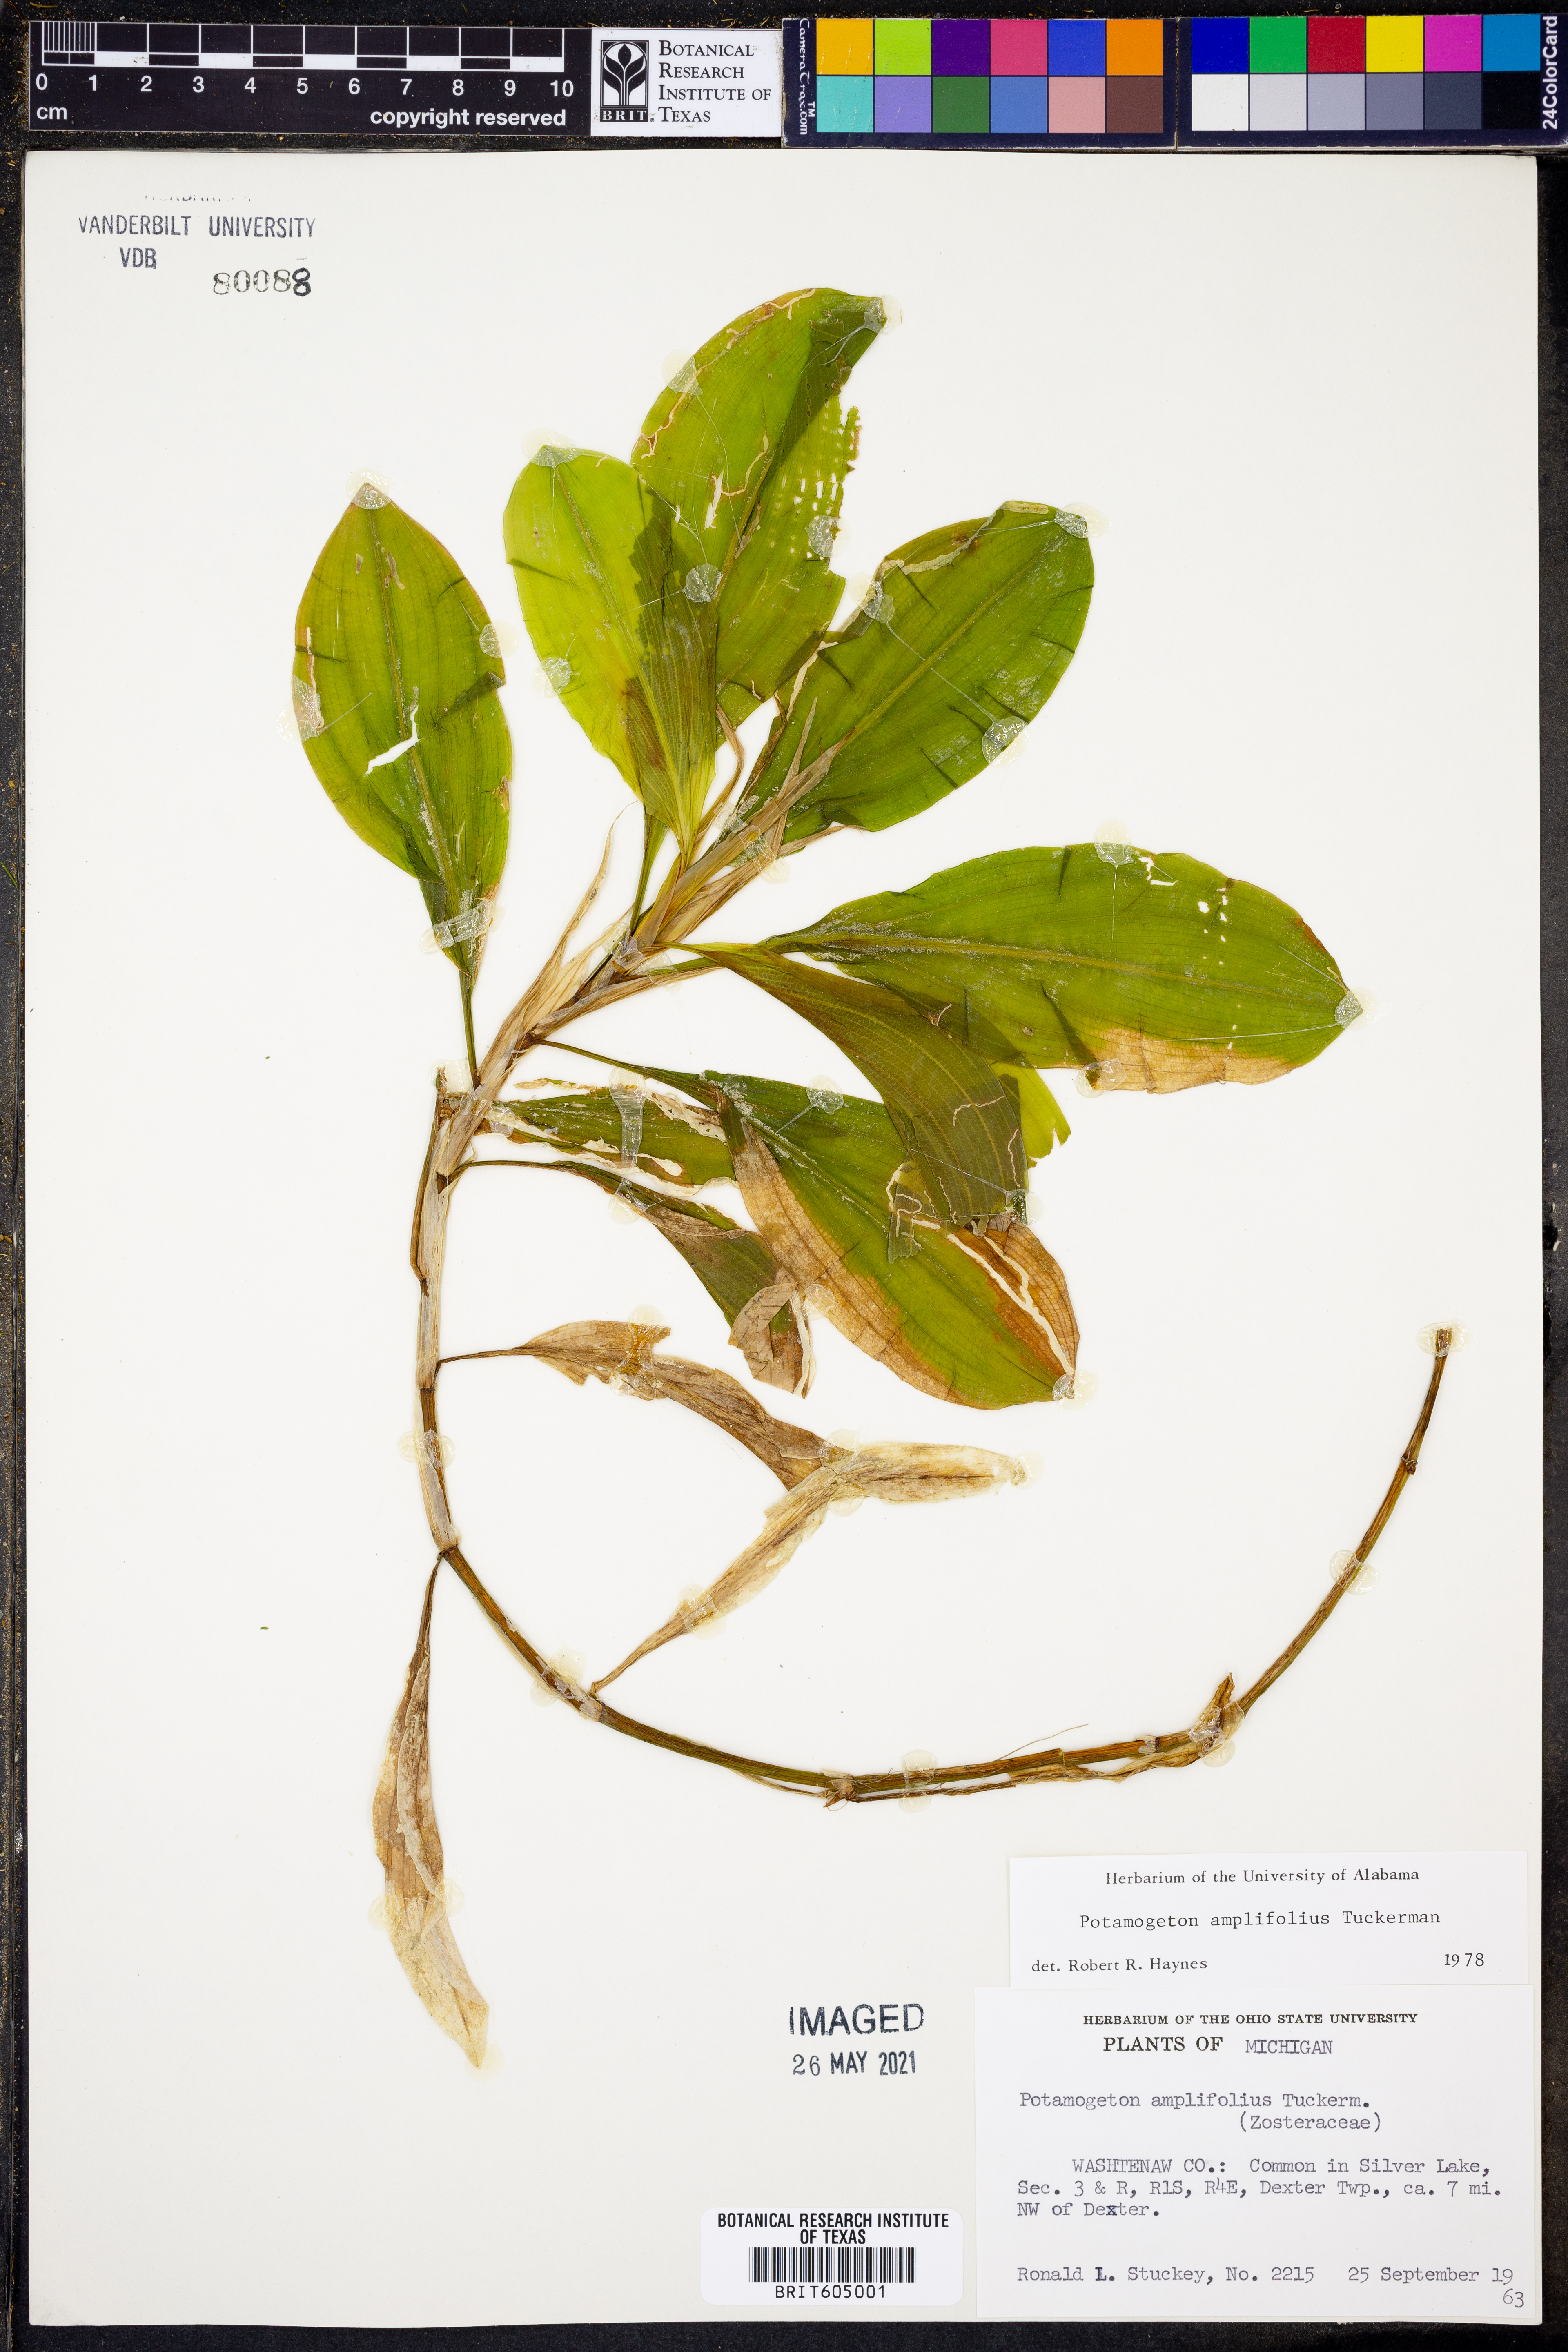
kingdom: Plantae
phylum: Tracheophyta
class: Liliopsida
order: Alismatales
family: Potamogetonaceae
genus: Potamogeton
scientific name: Potamogeton amplifolius
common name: Broad-leaved pondweed
